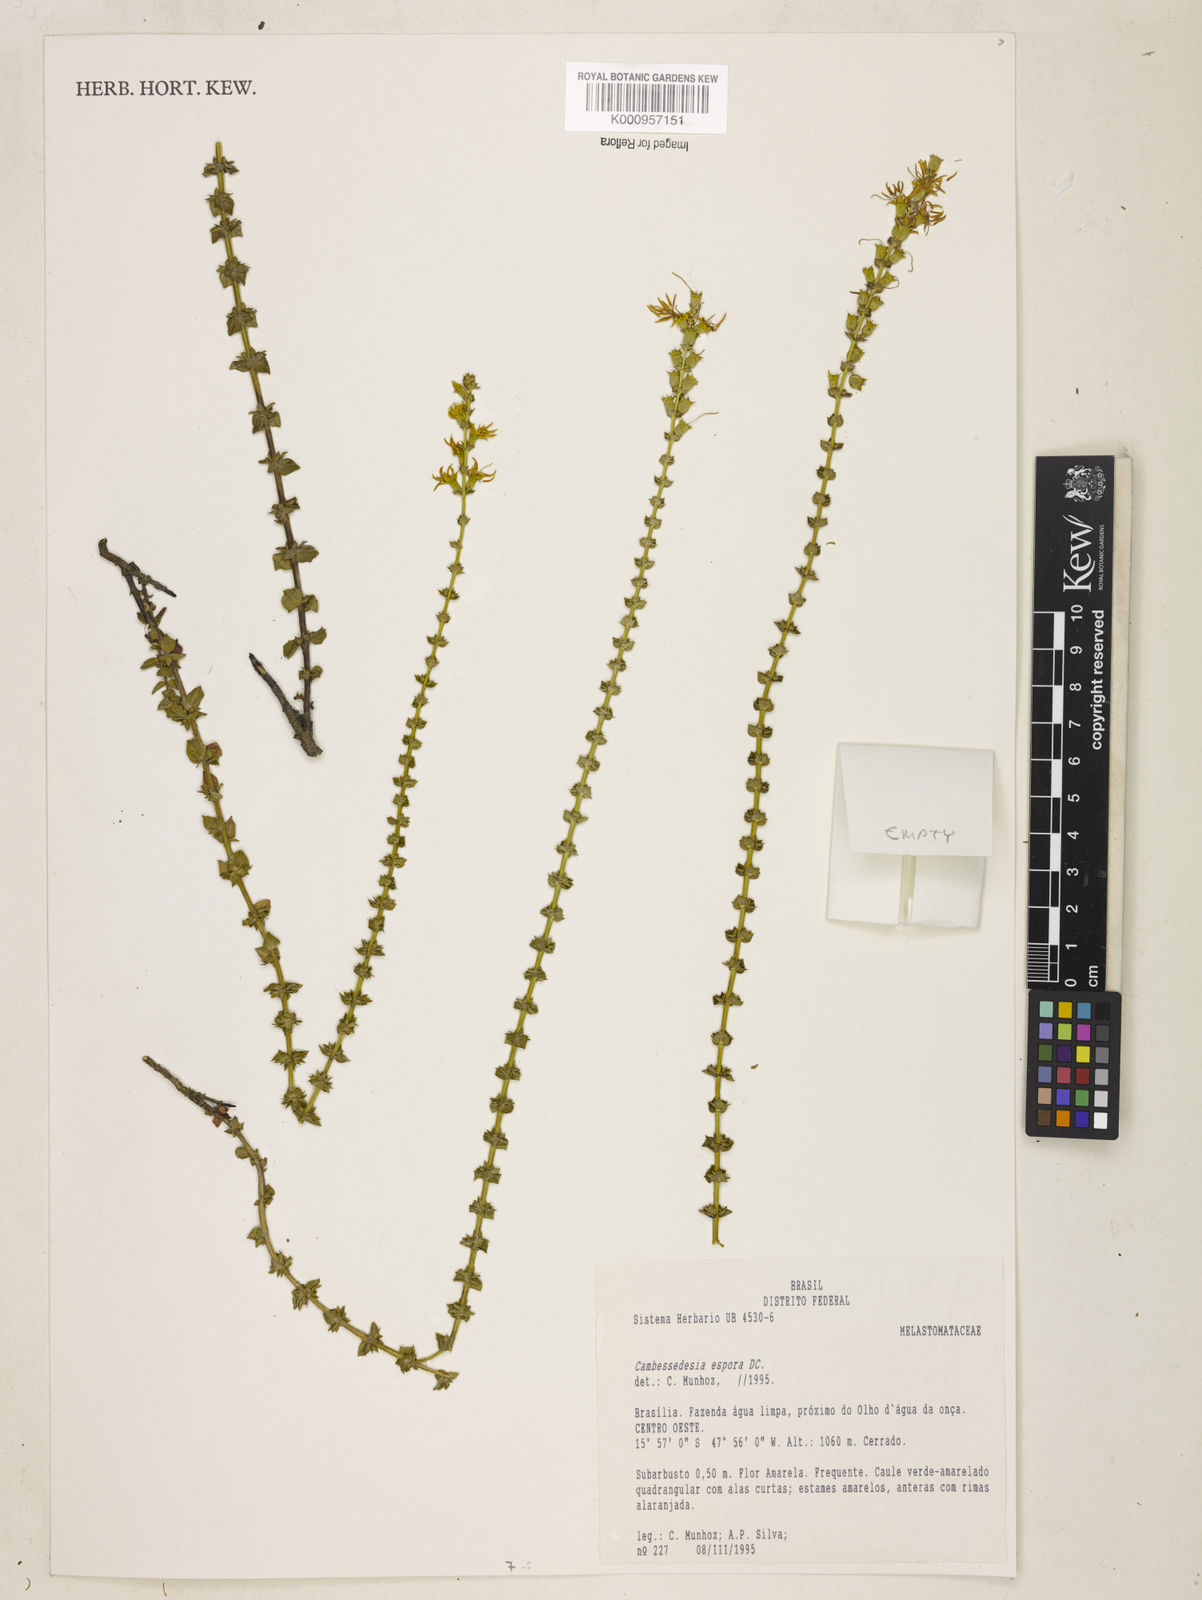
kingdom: Plantae
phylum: Tracheophyta
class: Magnoliopsida
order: Myrtales
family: Melastomataceae
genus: Cambessedesia
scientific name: Cambessedesia espora
